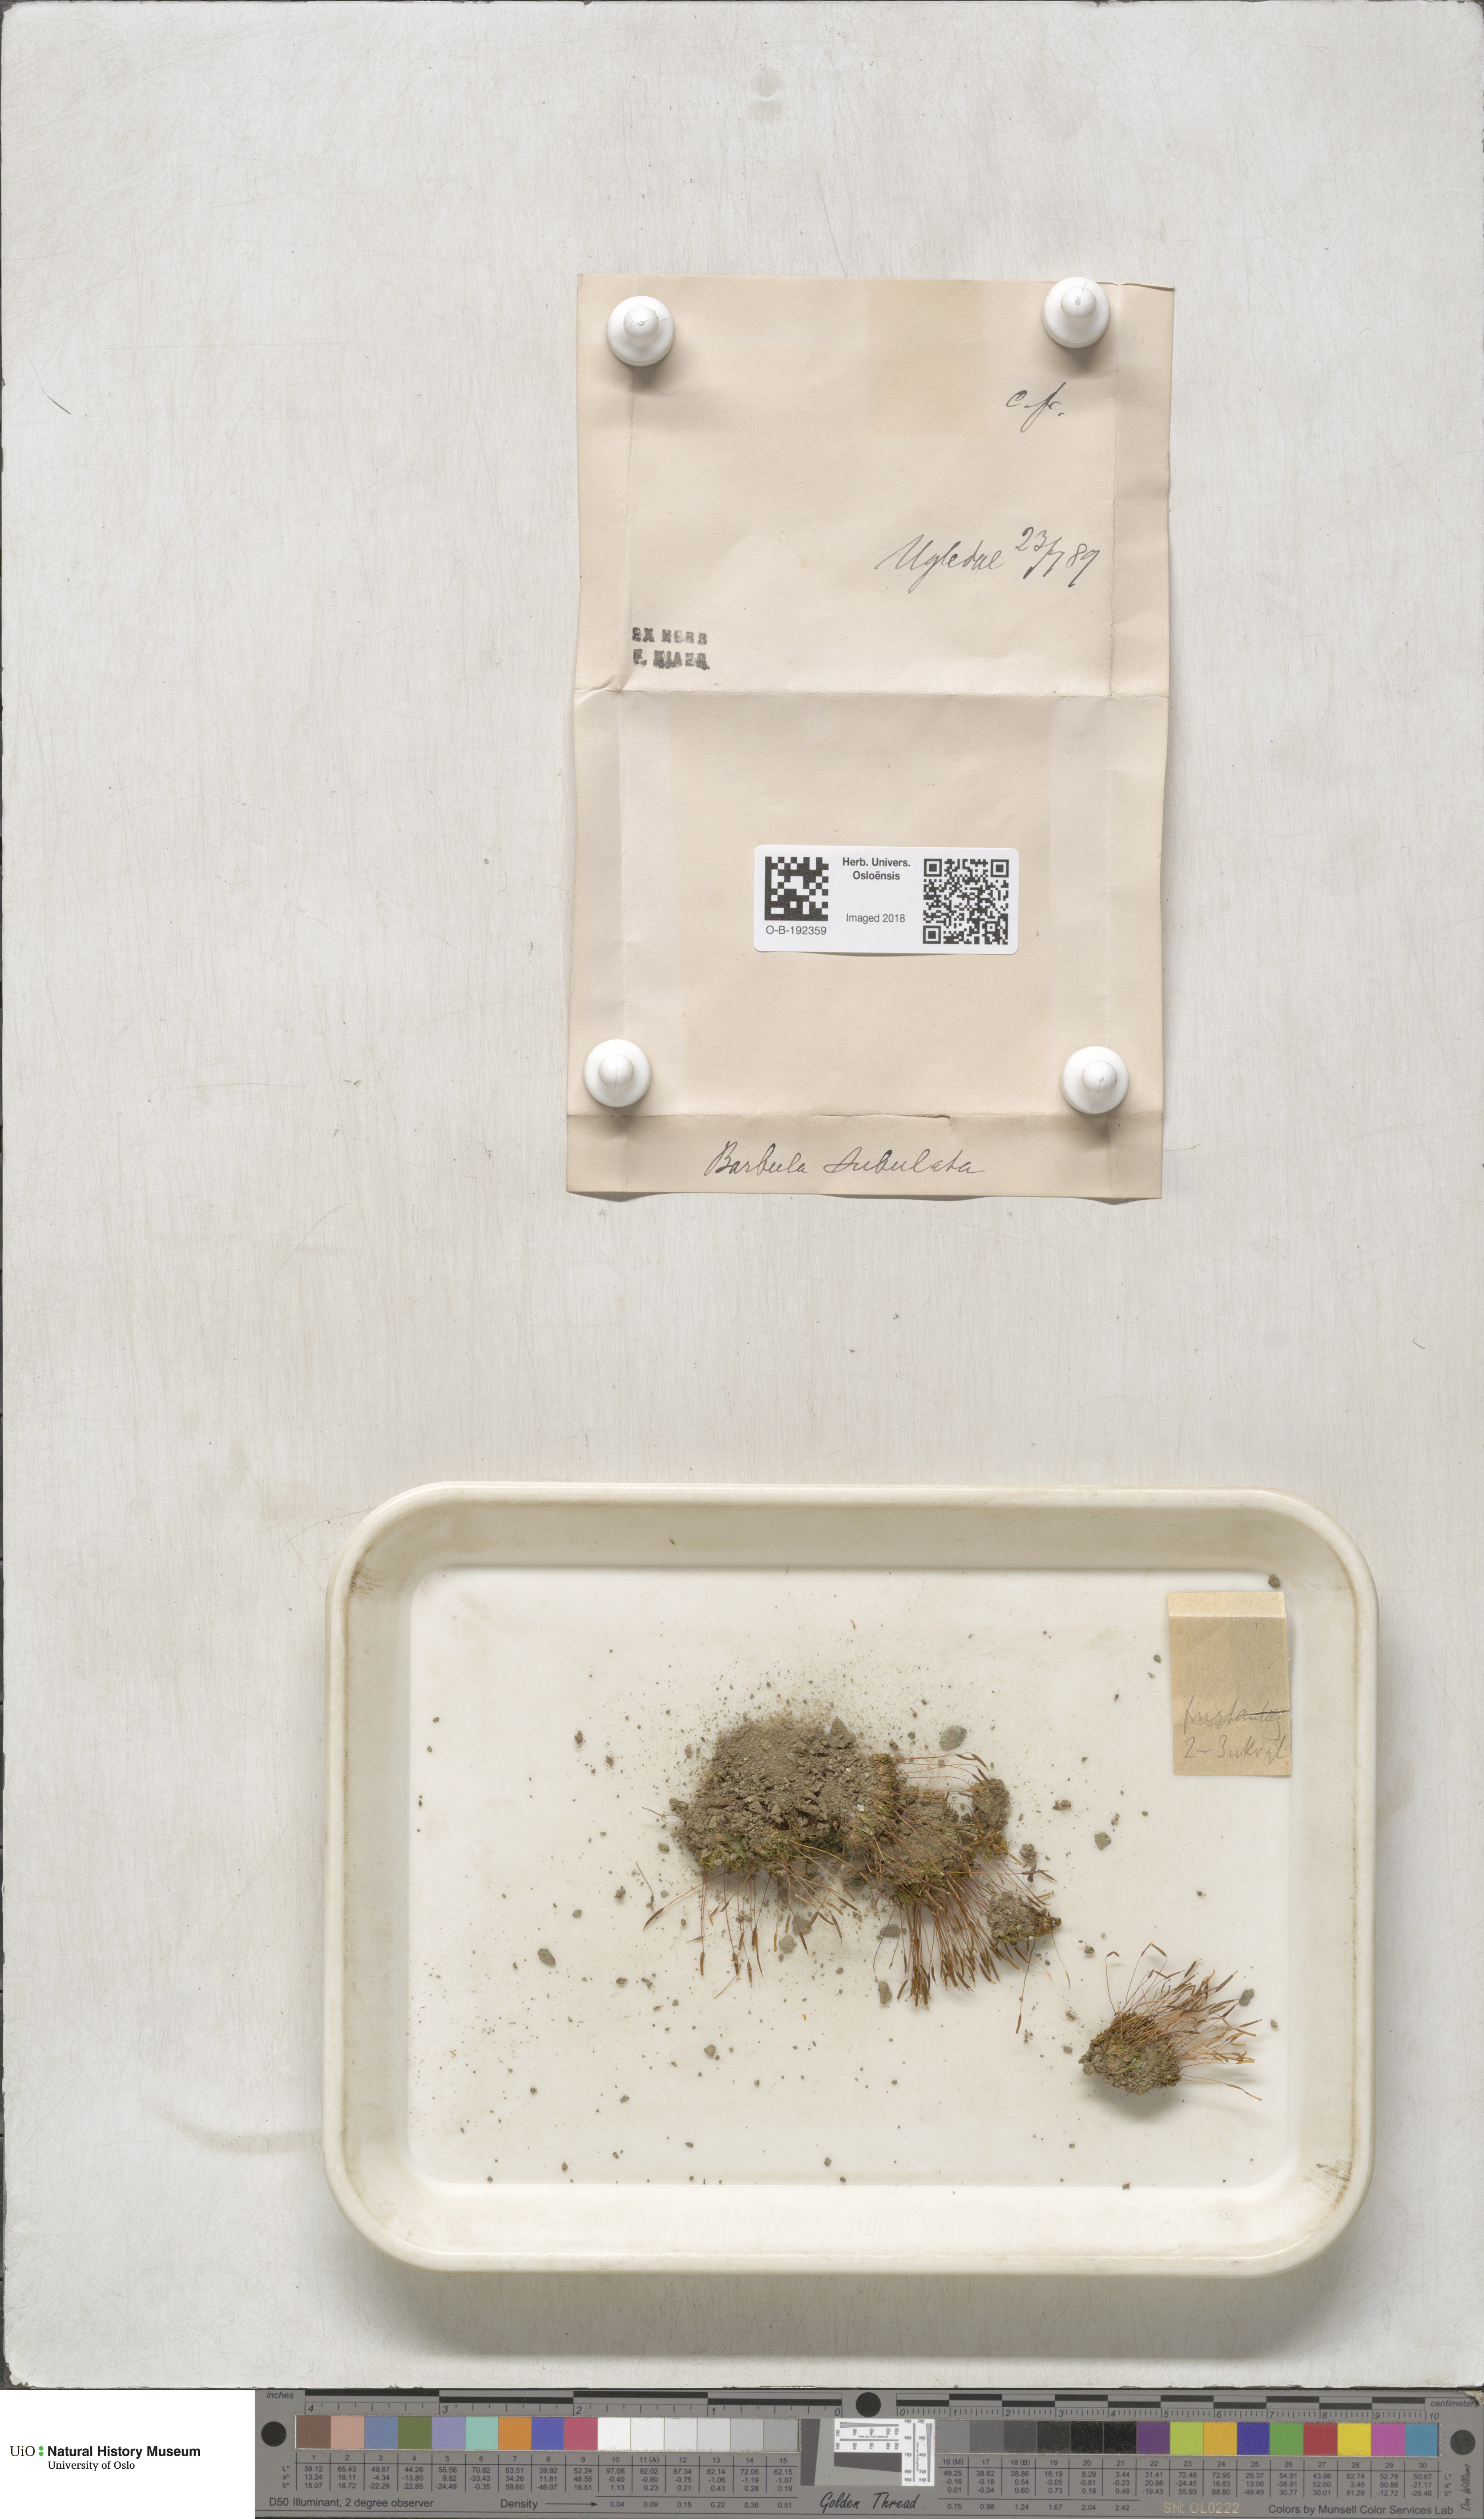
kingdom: Plantae
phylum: Bryophyta
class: Bryopsida
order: Pottiales
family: Pottiaceae
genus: Tortula
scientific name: Tortula subulata
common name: Upright screw-moss
